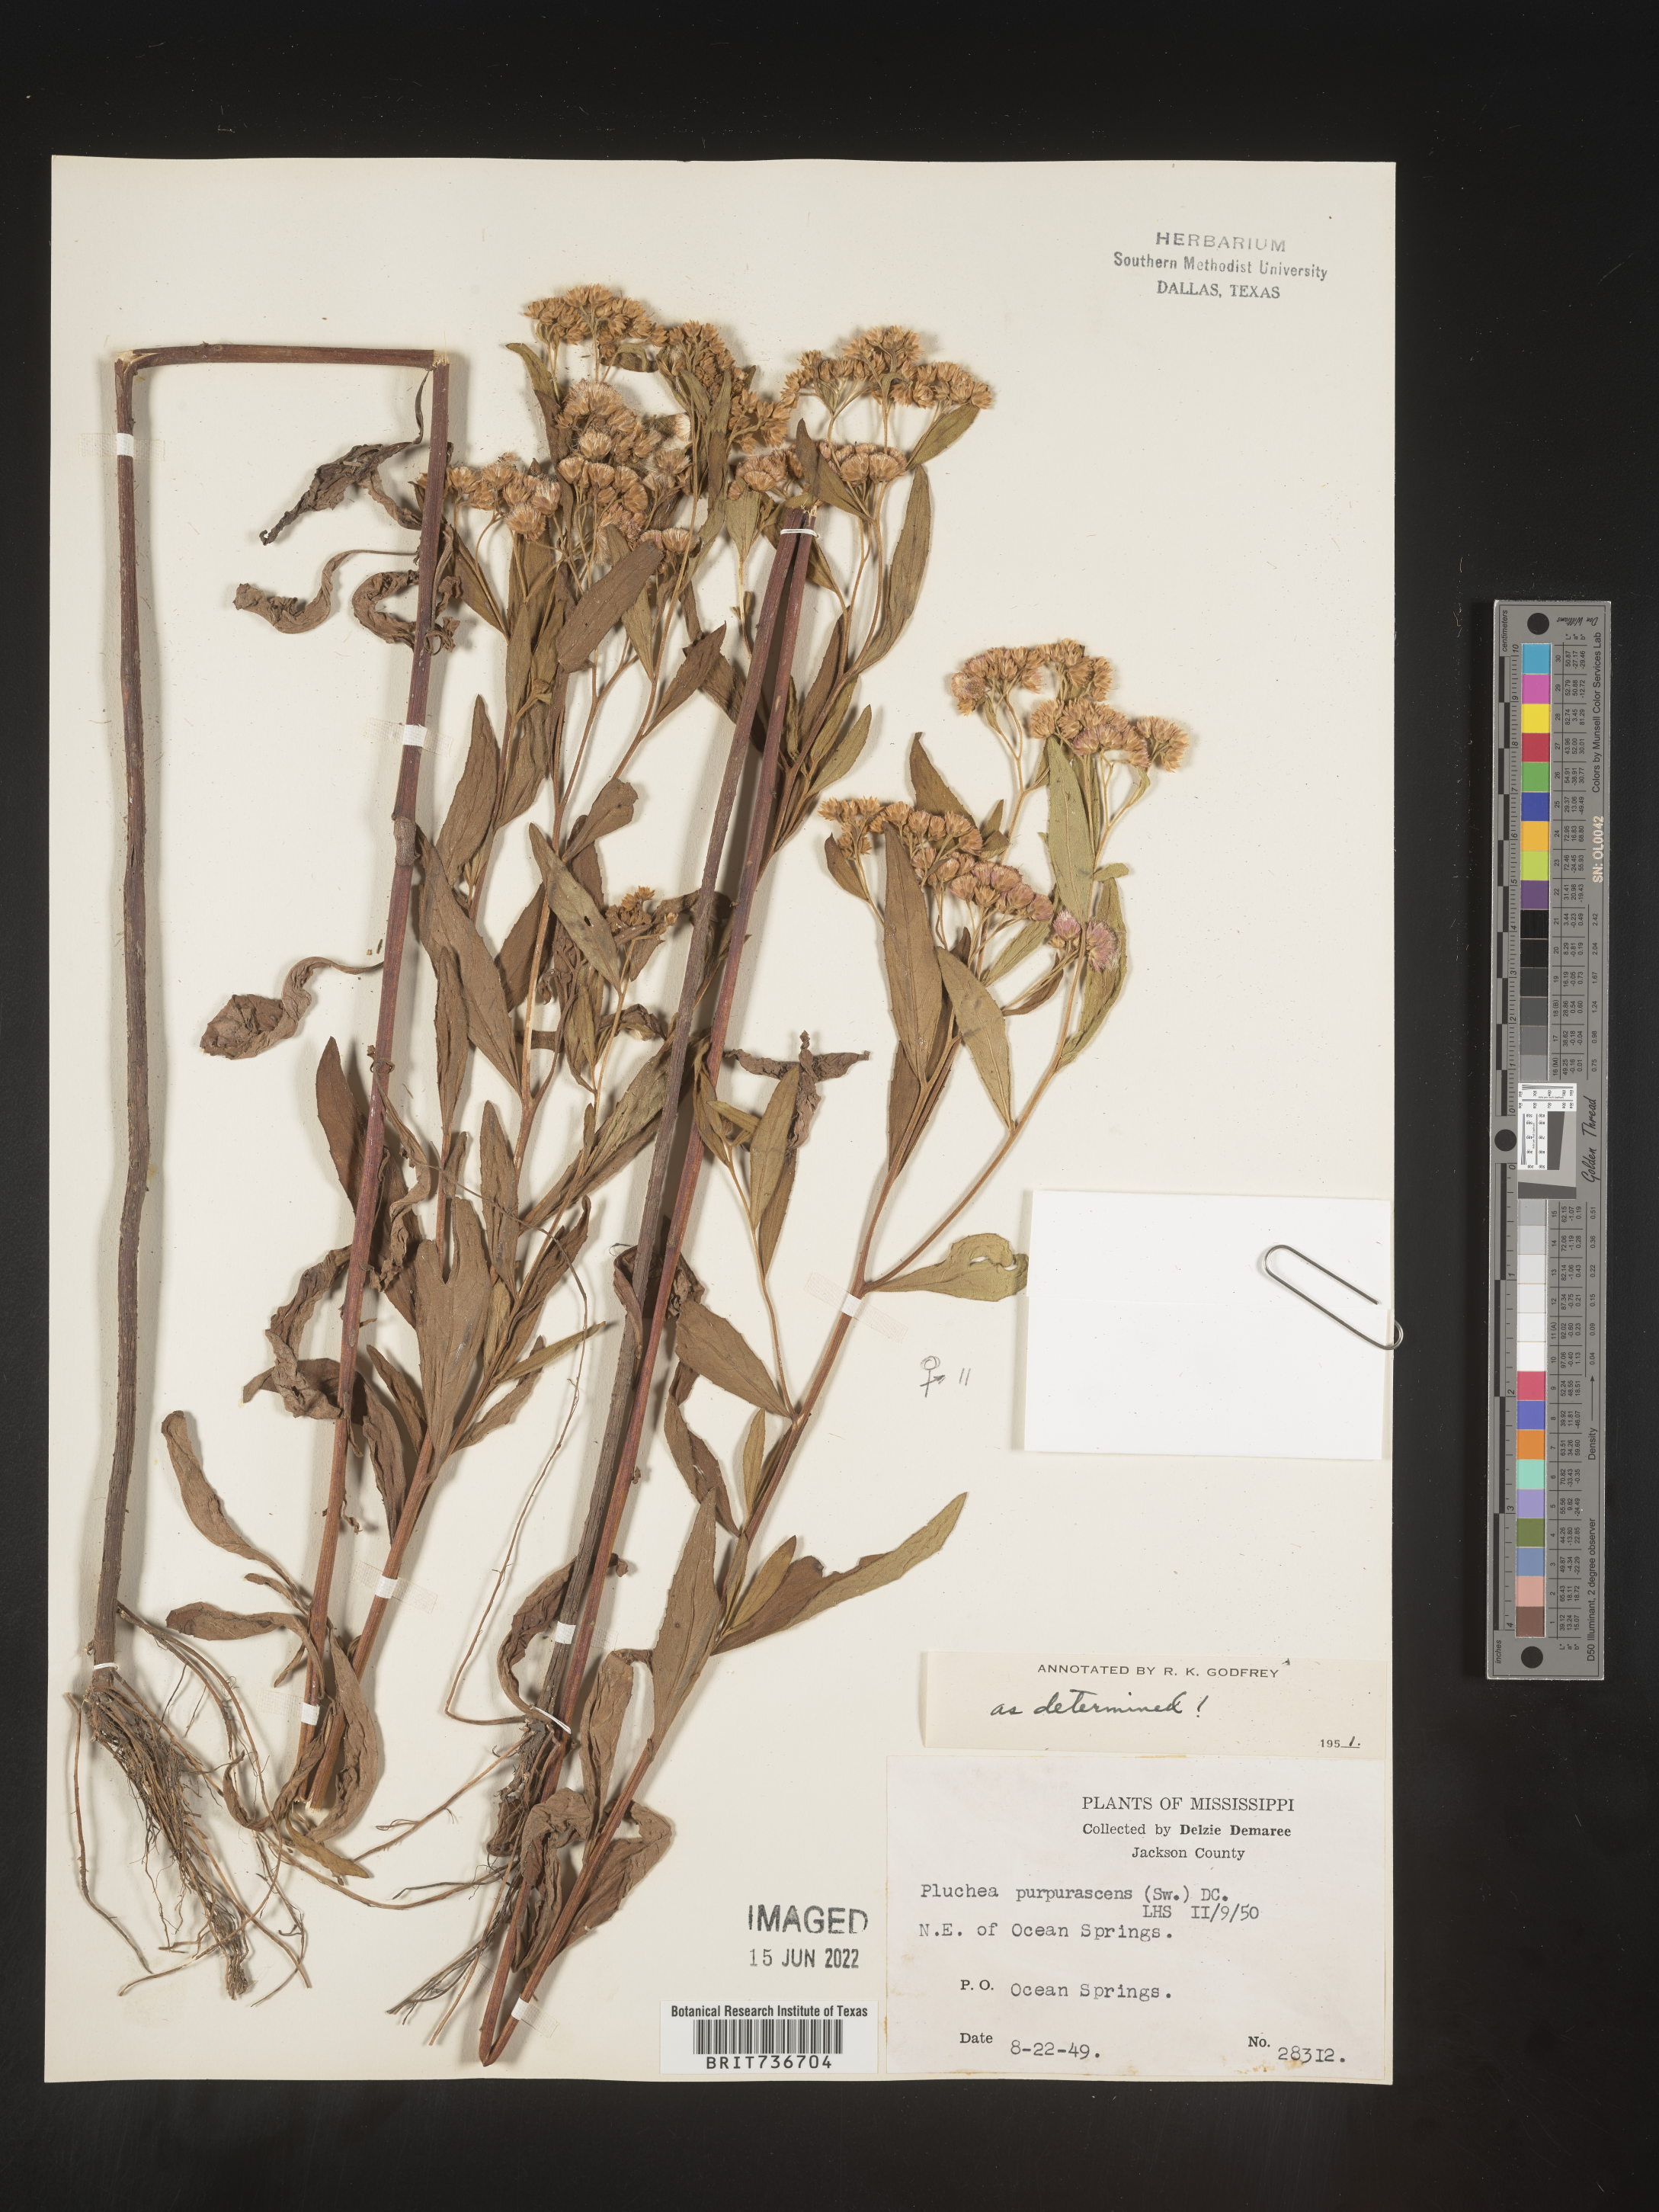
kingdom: Plantae
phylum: Tracheophyta
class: Magnoliopsida
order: Asterales
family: Asteraceae
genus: Pluchea
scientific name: Pluchea odorata
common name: Saltmarsh fleabane
